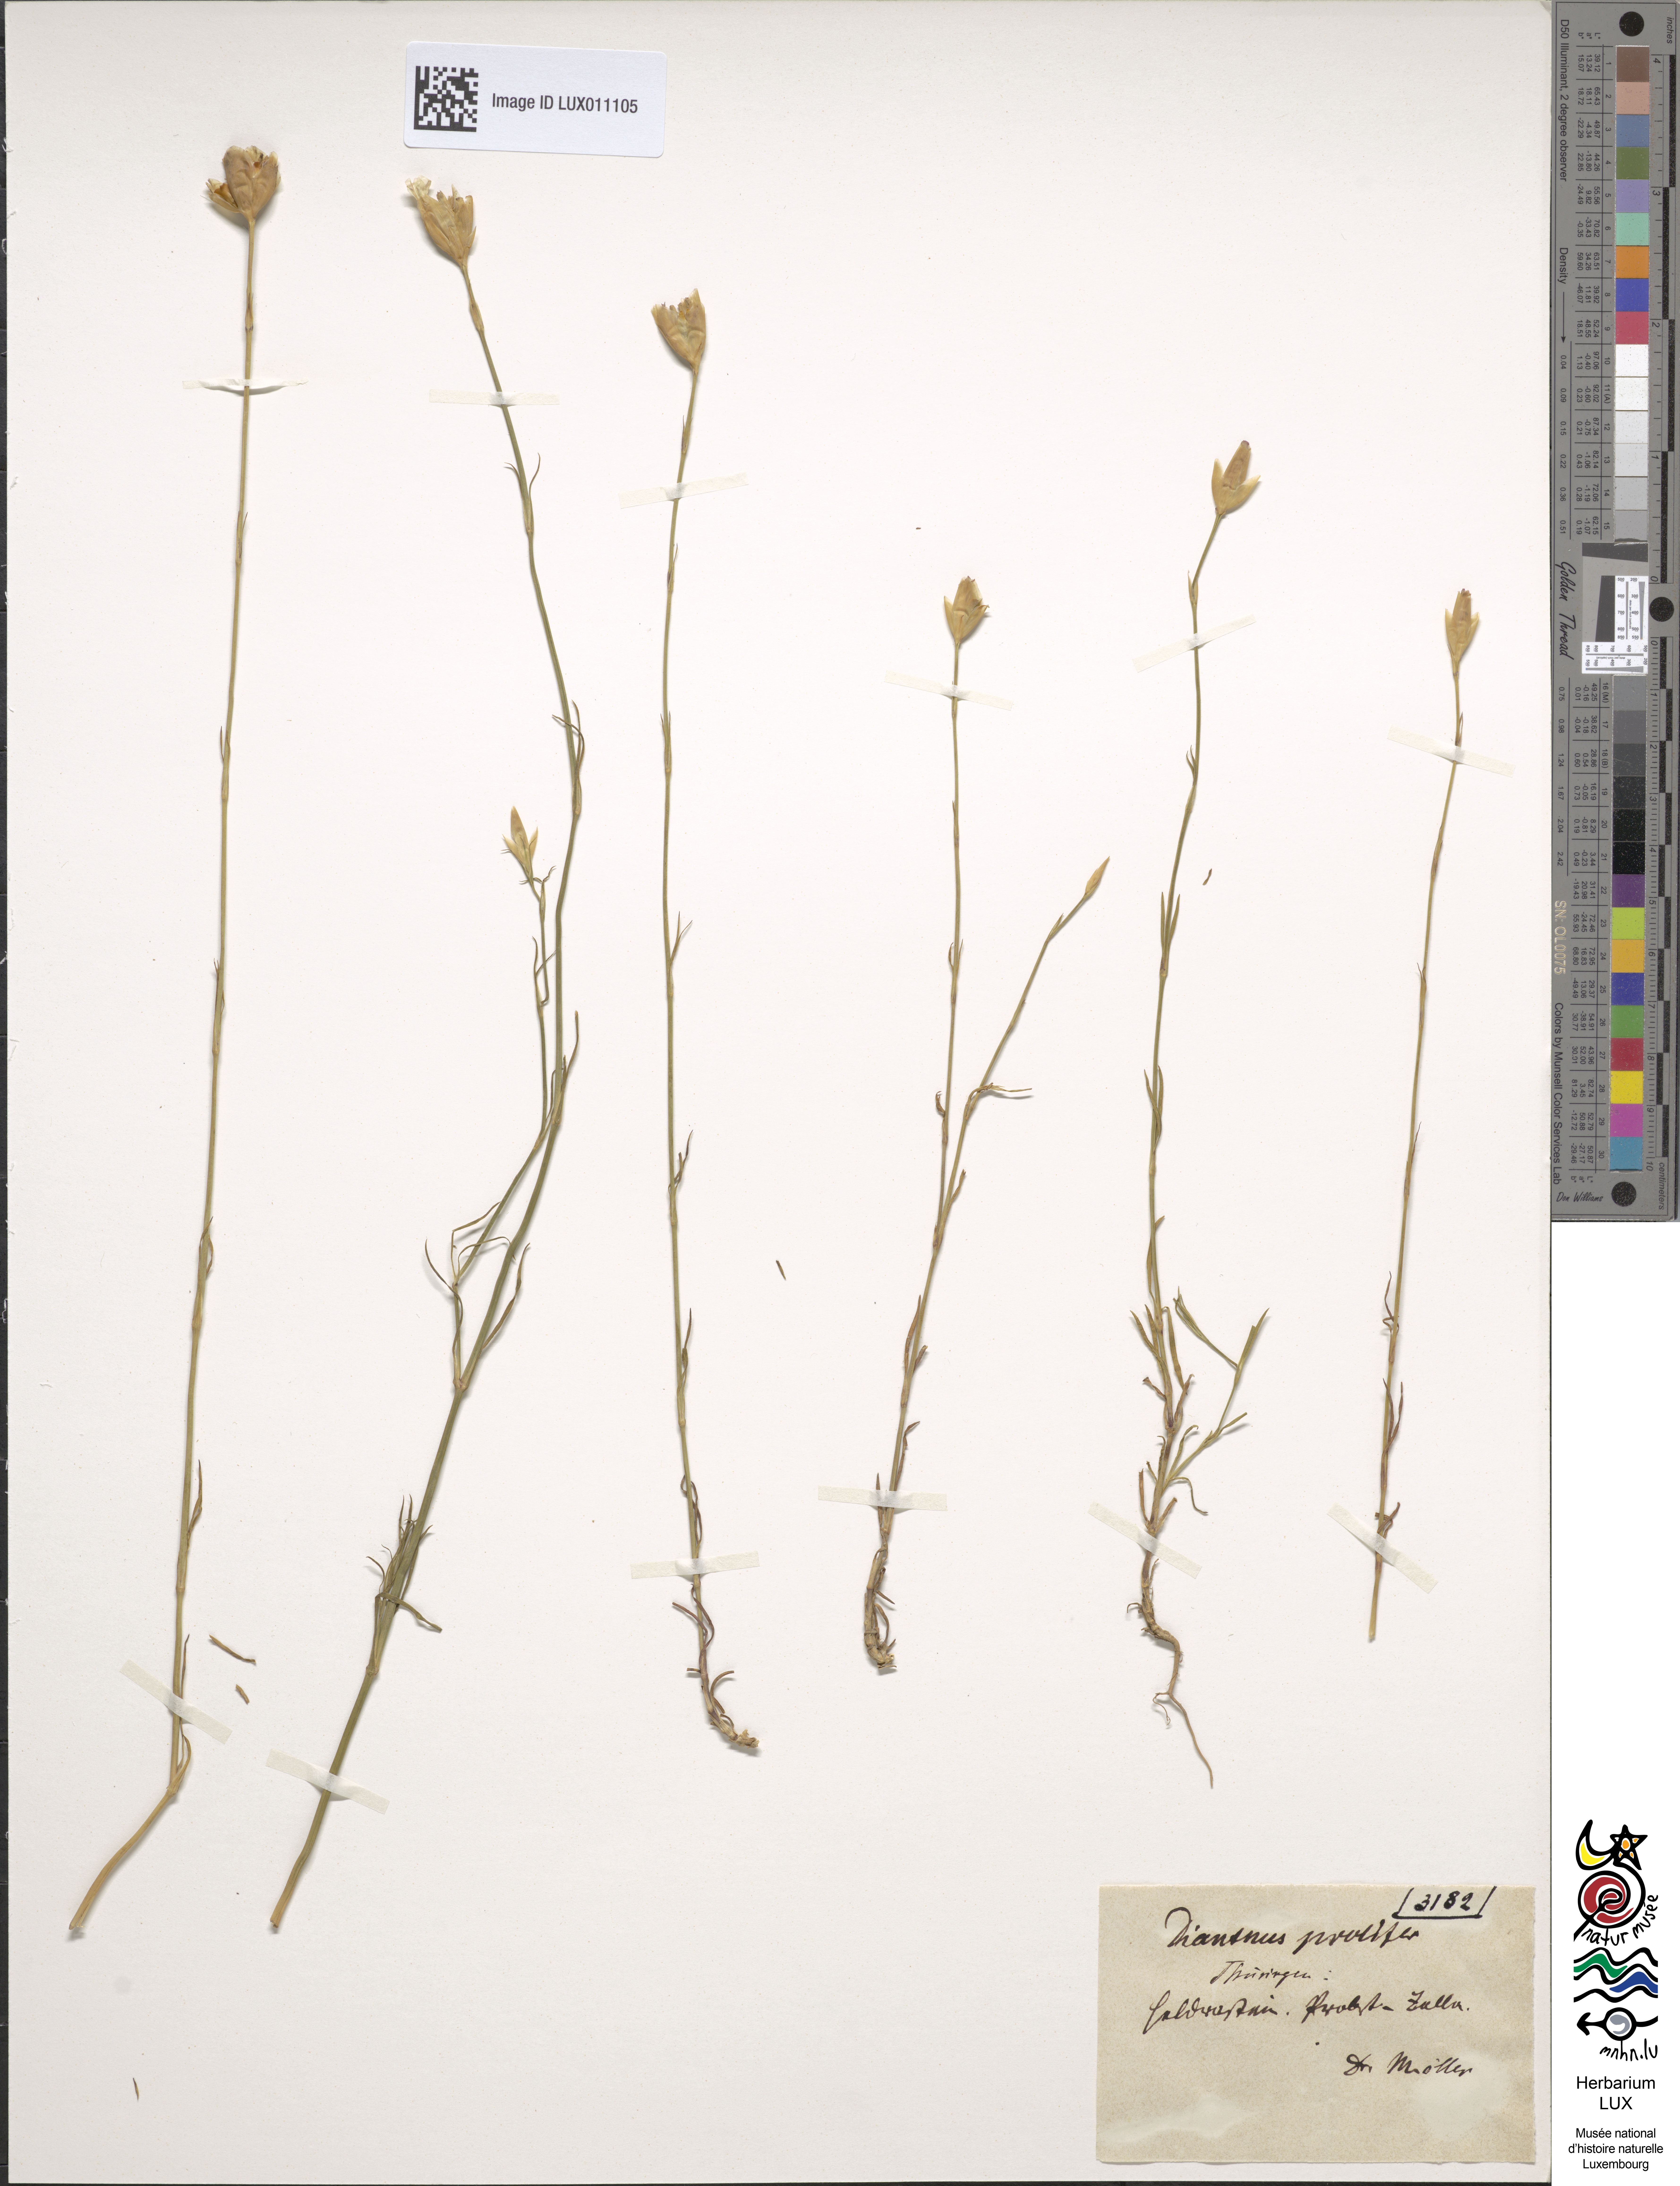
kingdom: Plantae
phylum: Tracheophyta
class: Magnoliopsida
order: Caryophyllales
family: Caryophyllaceae
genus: Petrorhagia
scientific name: Petrorhagia prolifera
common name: Proliferous pink
